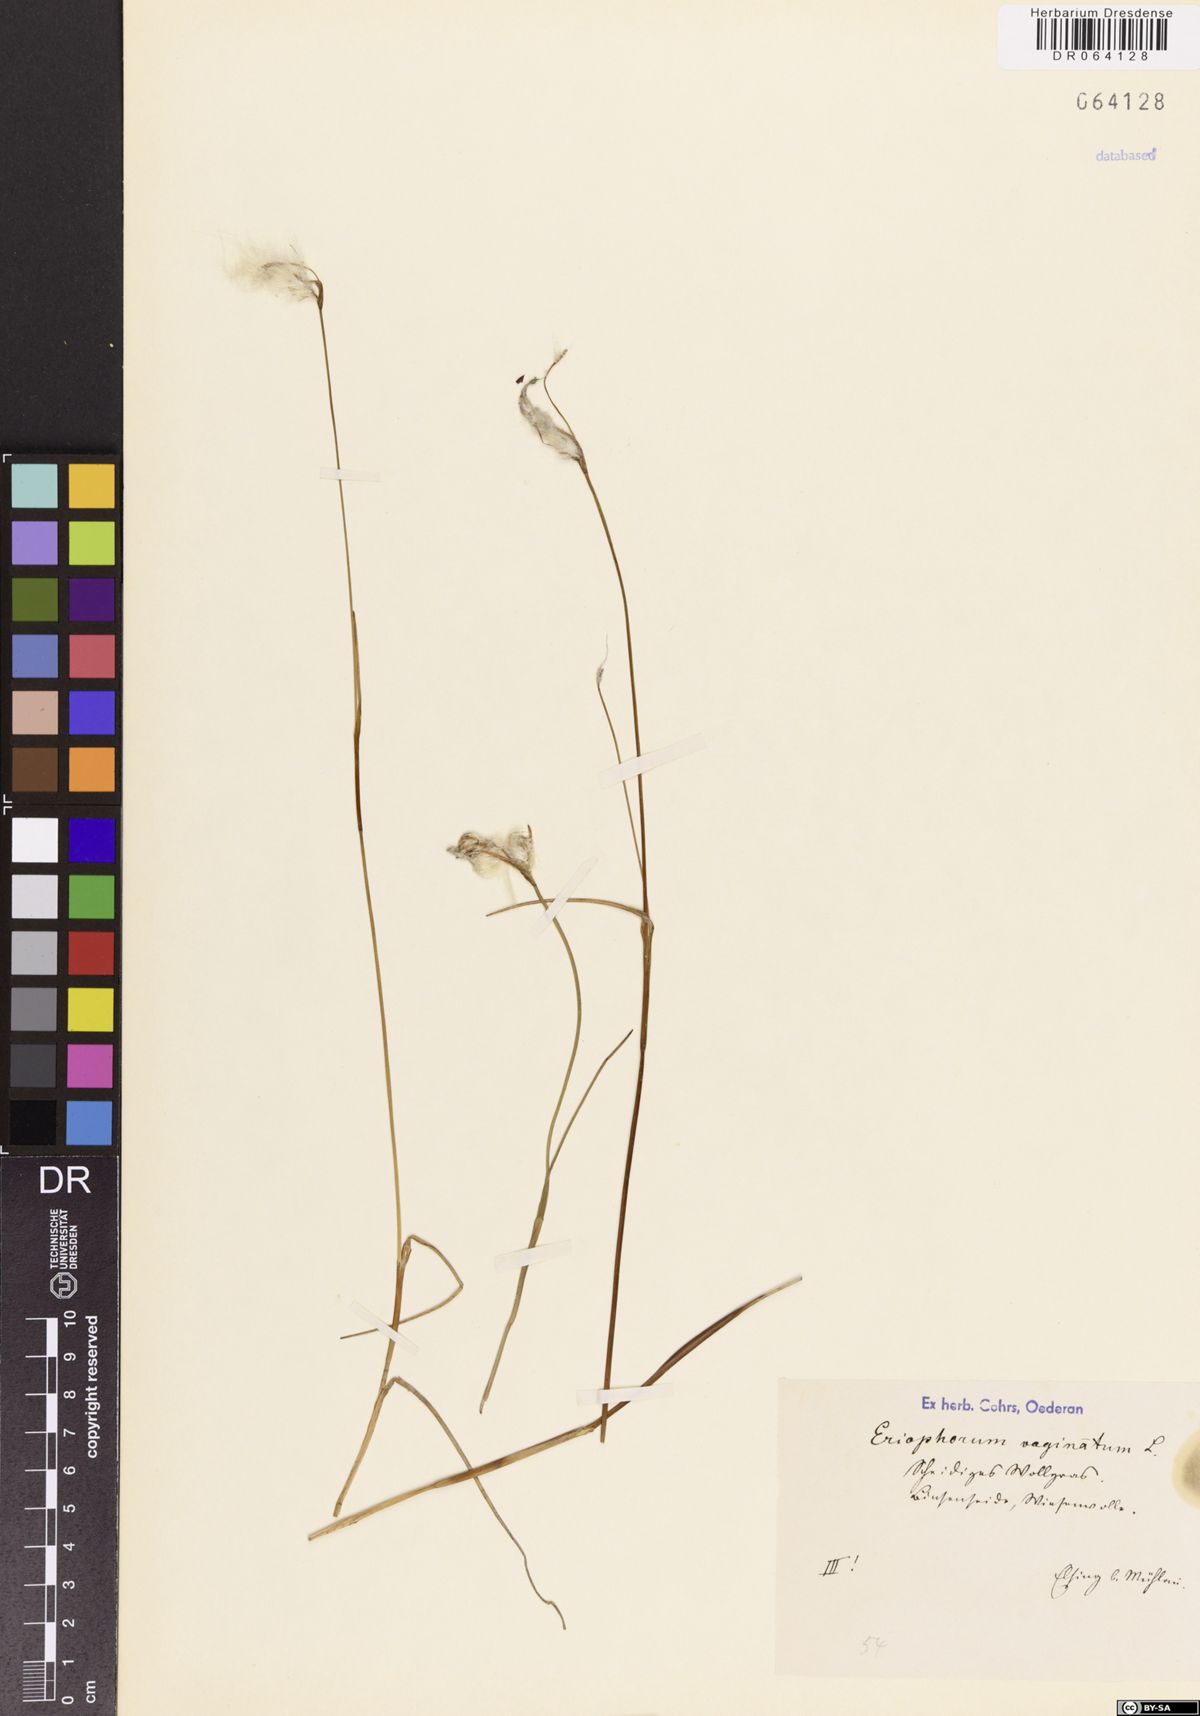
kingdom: Plantae
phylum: Tracheophyta
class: Liliopsida
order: Poales
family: Cyperaceae
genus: Eriophorum
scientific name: Eriophorum vaginatum
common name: Hare's-tail cottongrass
